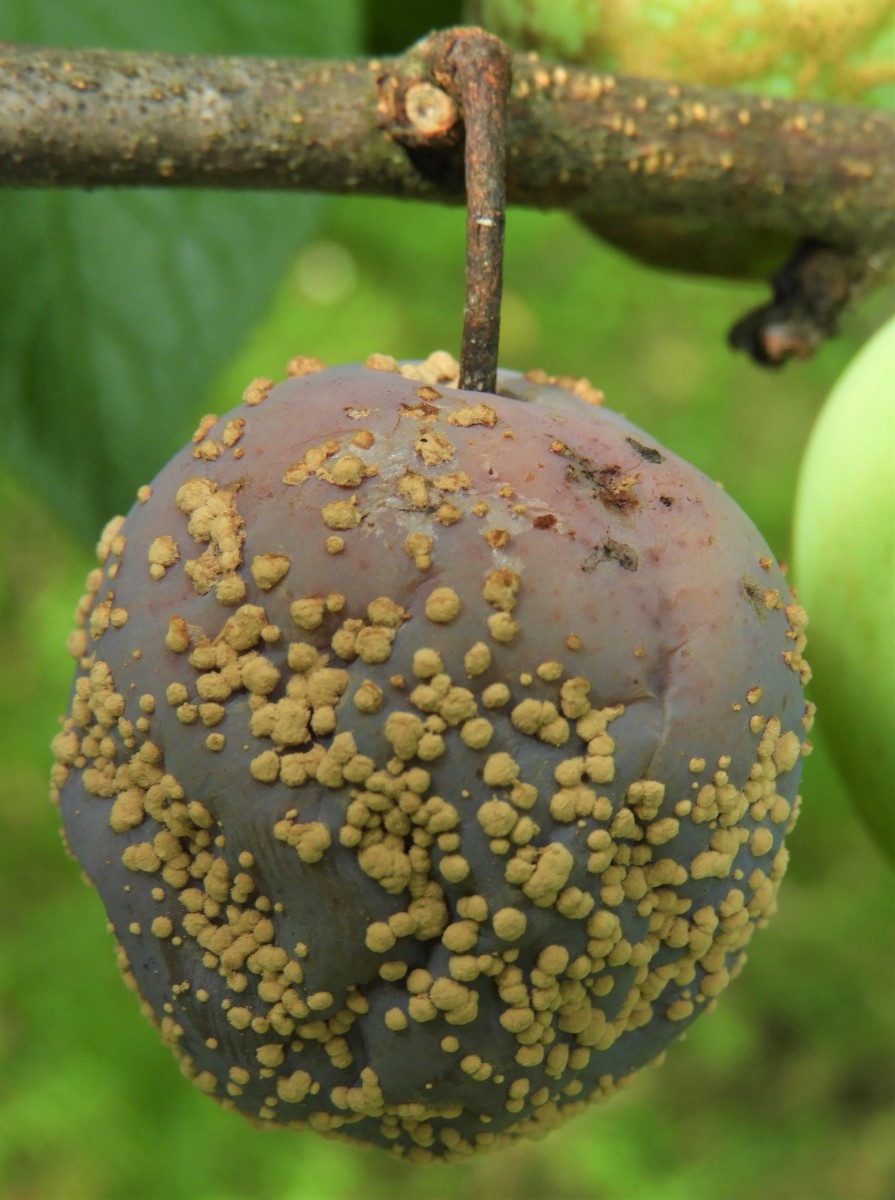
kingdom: Fungi
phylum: Ascomycota
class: Leotiomycetes
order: Helotiales
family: Sclerotiniaceae
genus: Monilinia
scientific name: Monilinia laxa
